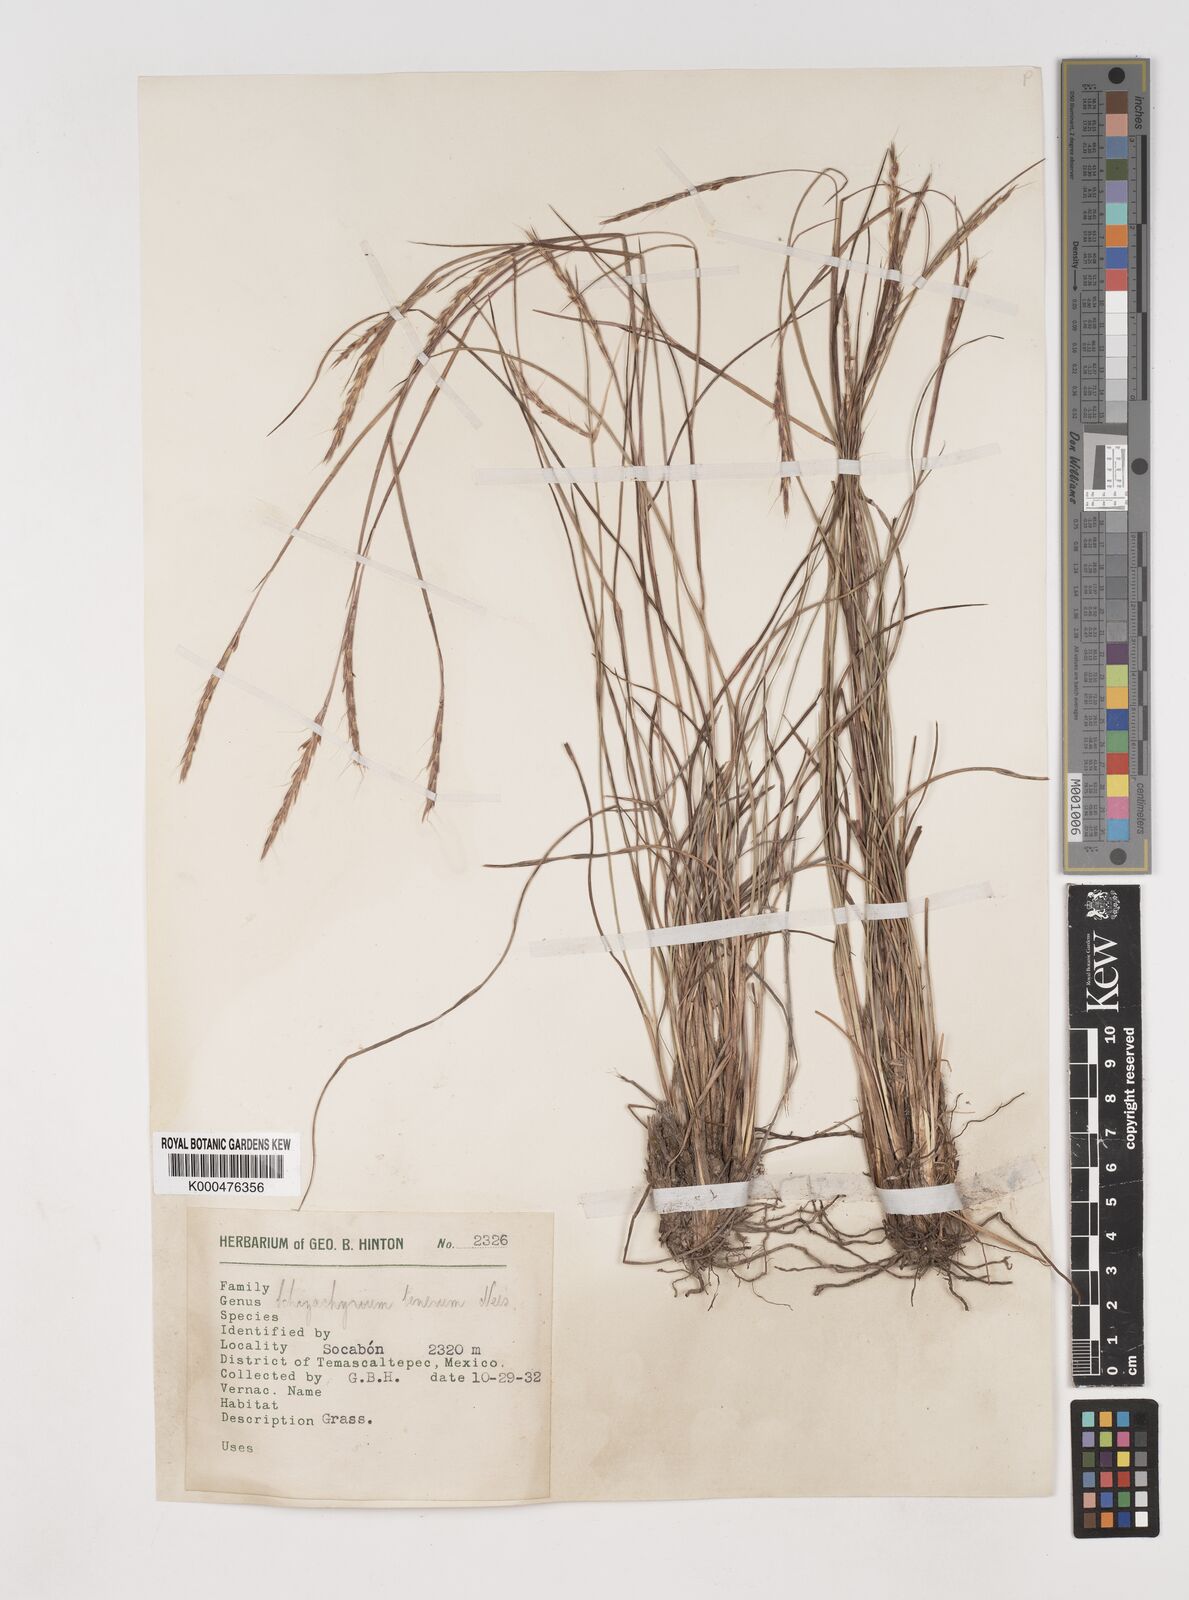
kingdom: Plantae
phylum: Tracheophyta
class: Liliopsida
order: Poales
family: Poaceae
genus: Andropogon
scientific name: Andropogon tener
